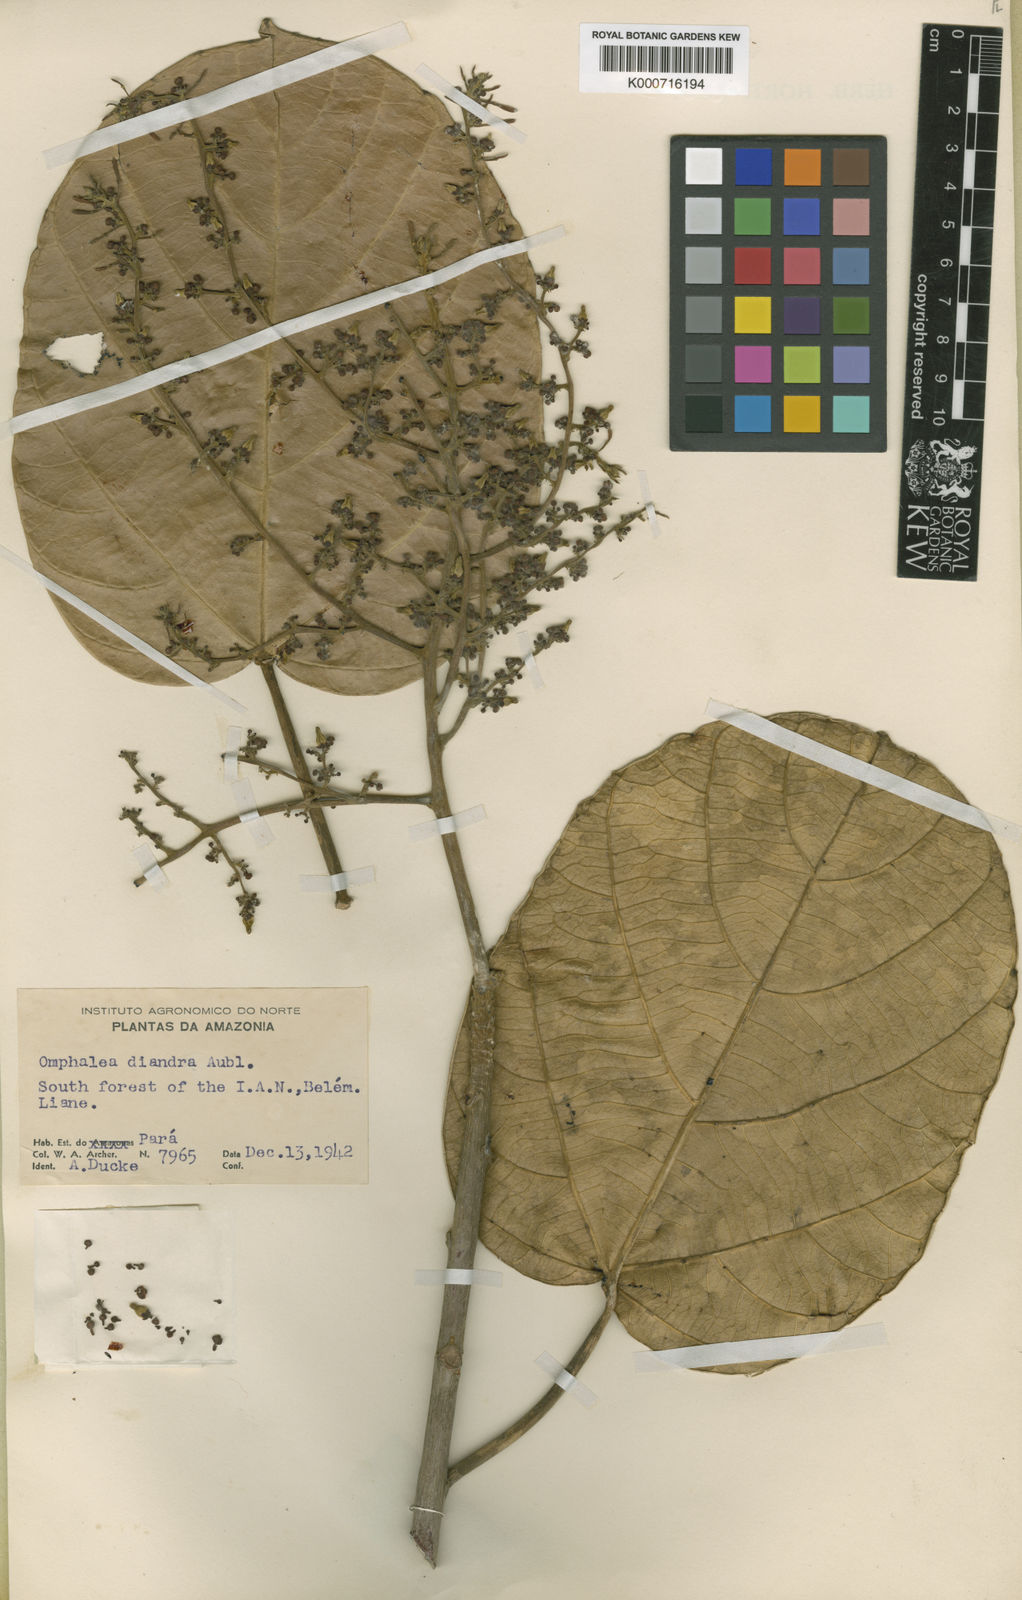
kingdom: Plantae
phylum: Tracheophyta
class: Magnoliopsida
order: Malpighiales
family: Euphorbiaceae
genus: Omphalea
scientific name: Omphalea diandra
